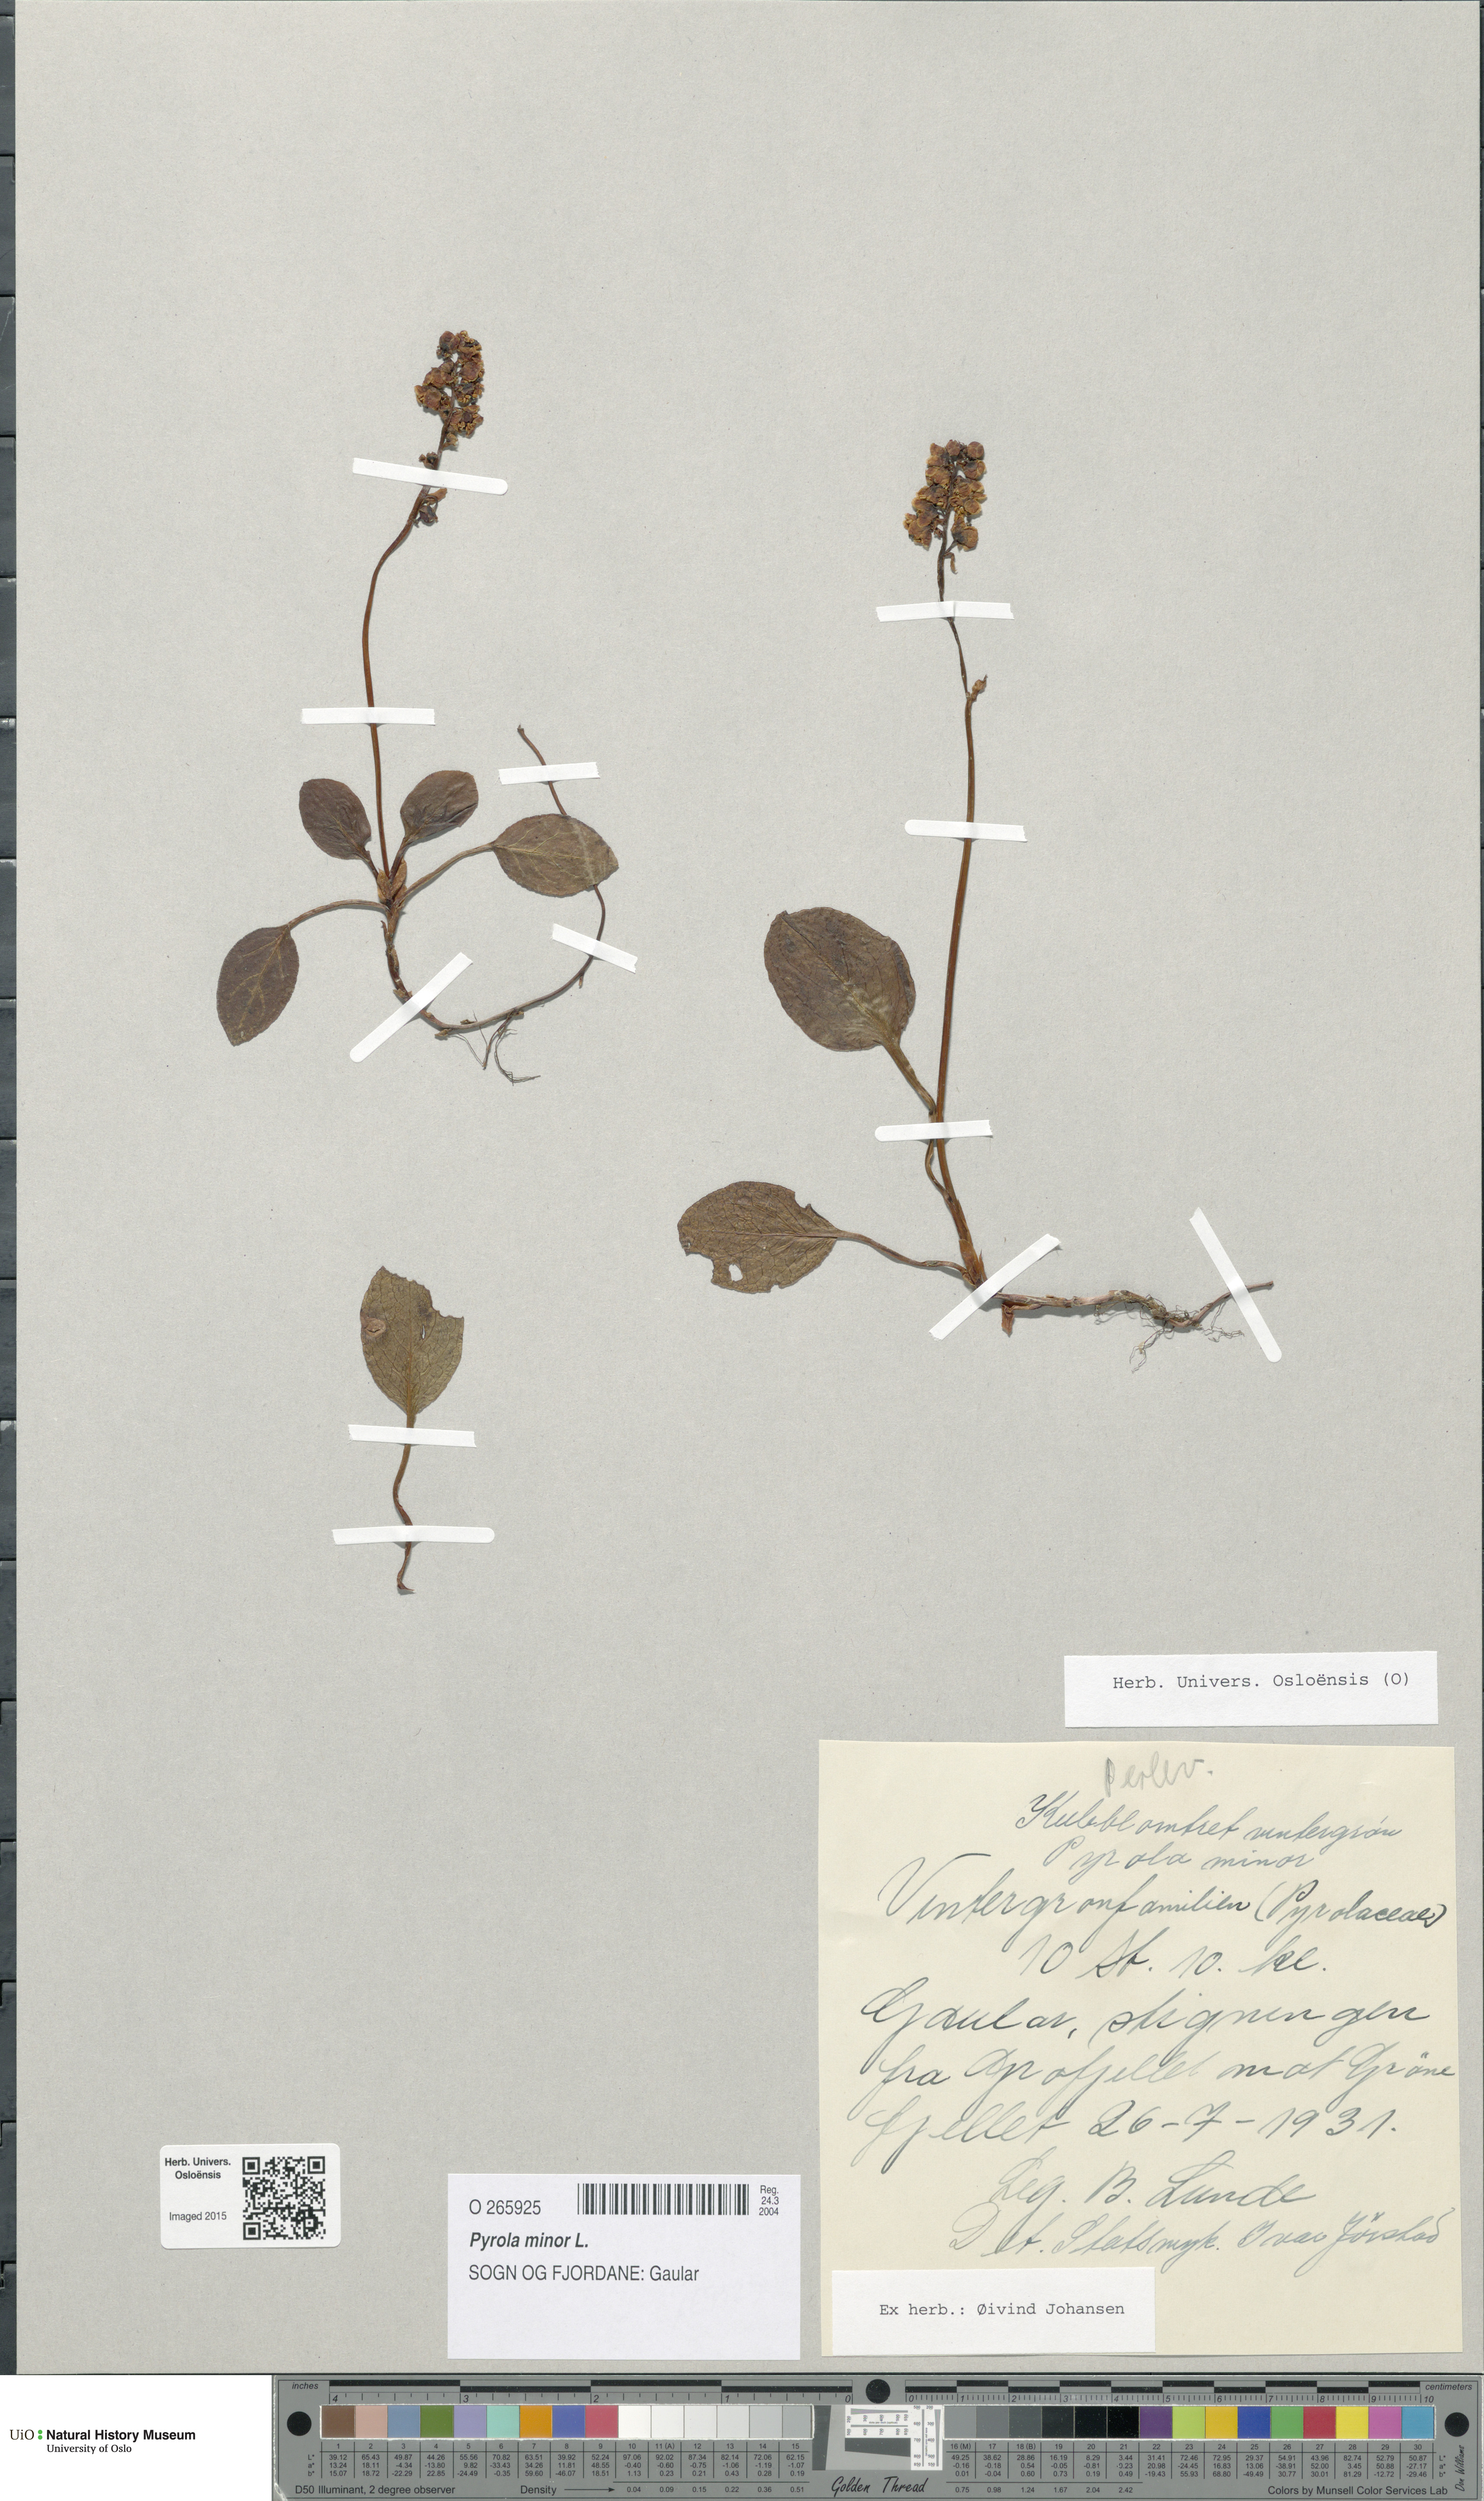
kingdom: Plantae
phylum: Tracheophyta
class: Magnoliopsida
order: Ericales
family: Ericaceae
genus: Pyrola
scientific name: Pyrola minor
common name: Common wintergreen
